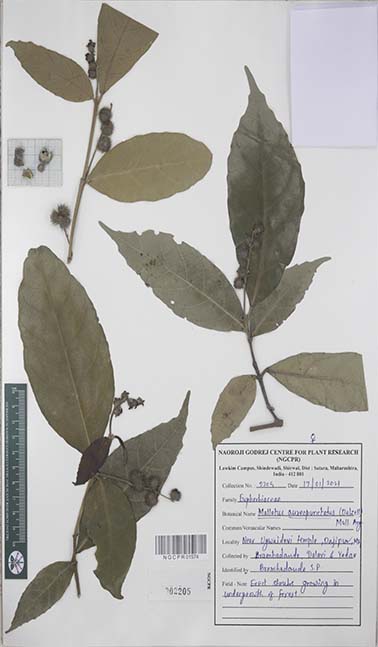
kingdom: Plantae
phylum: Tracheophyta
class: Magnoliopsida
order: Malpighiales
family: Euphorbiaceae
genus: Mallotus
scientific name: Mallotus resinosus
